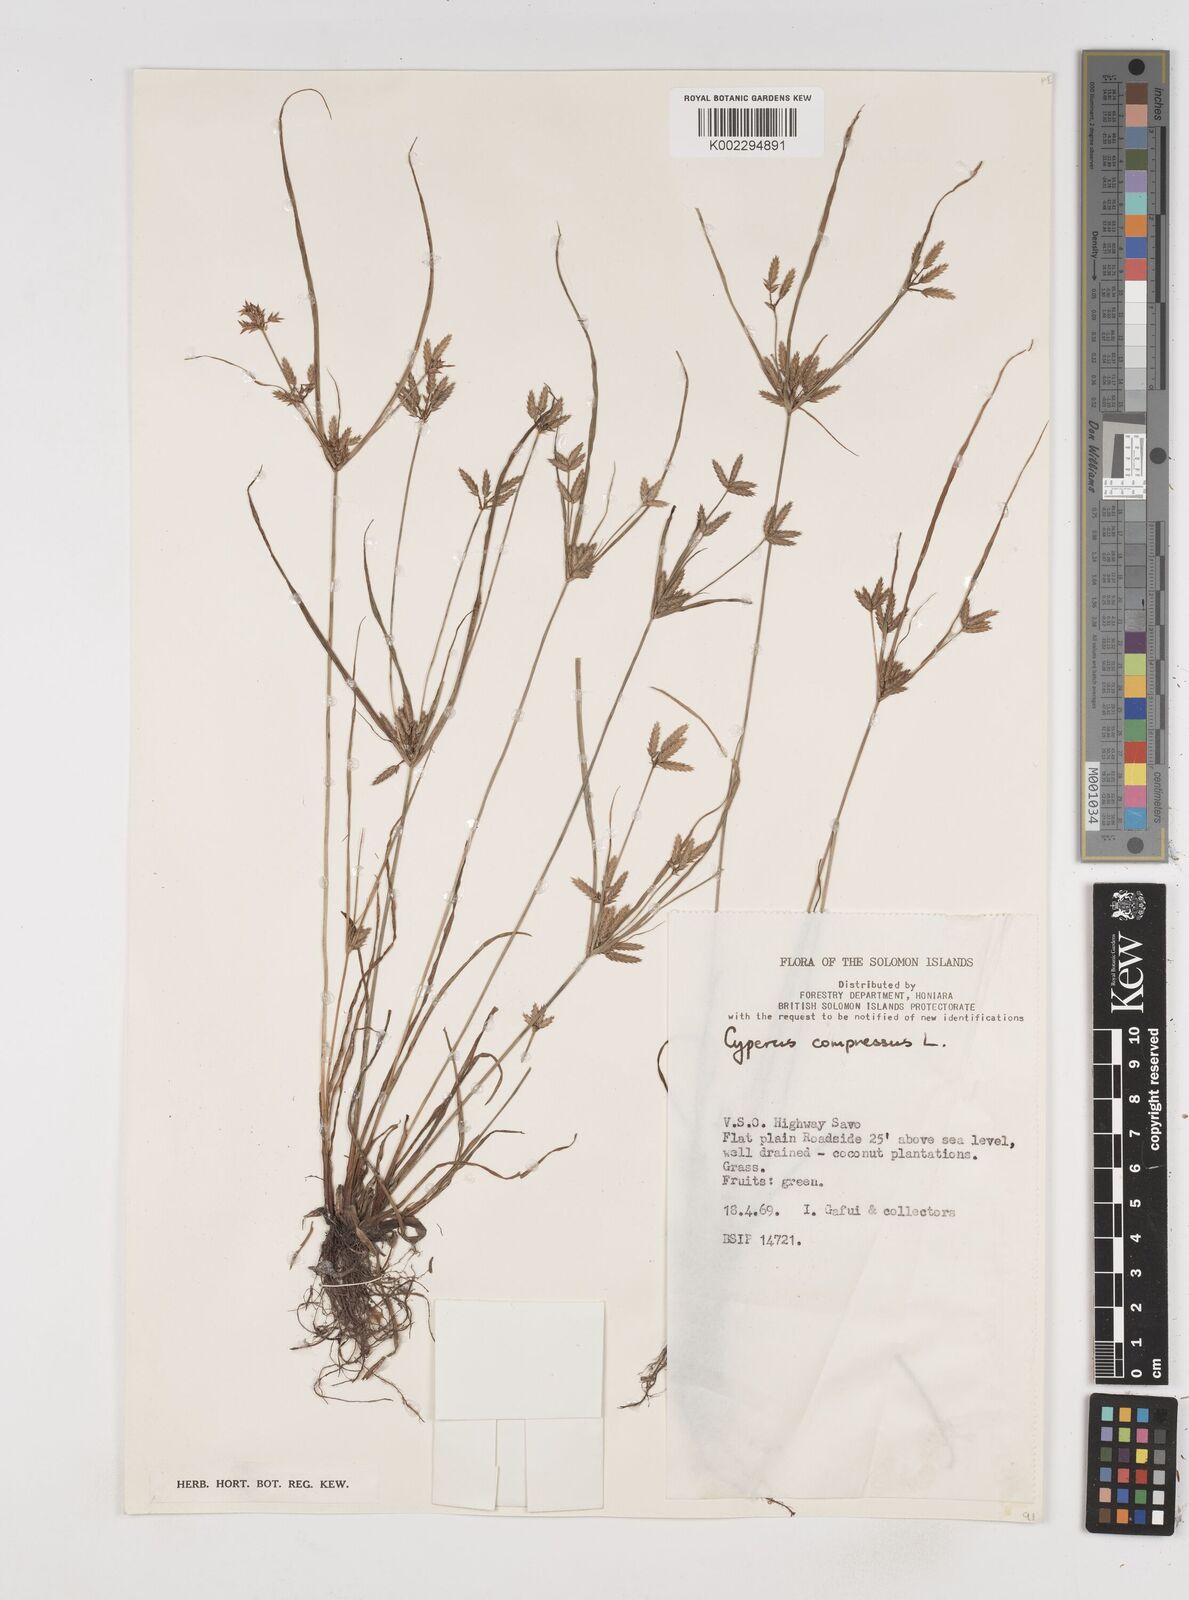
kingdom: Plantae
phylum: Tracheophyta
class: Liliopsida
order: Poales
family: Cyperaceae
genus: Cyperus
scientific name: Cyperus compressus
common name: Poorland flatsedge
